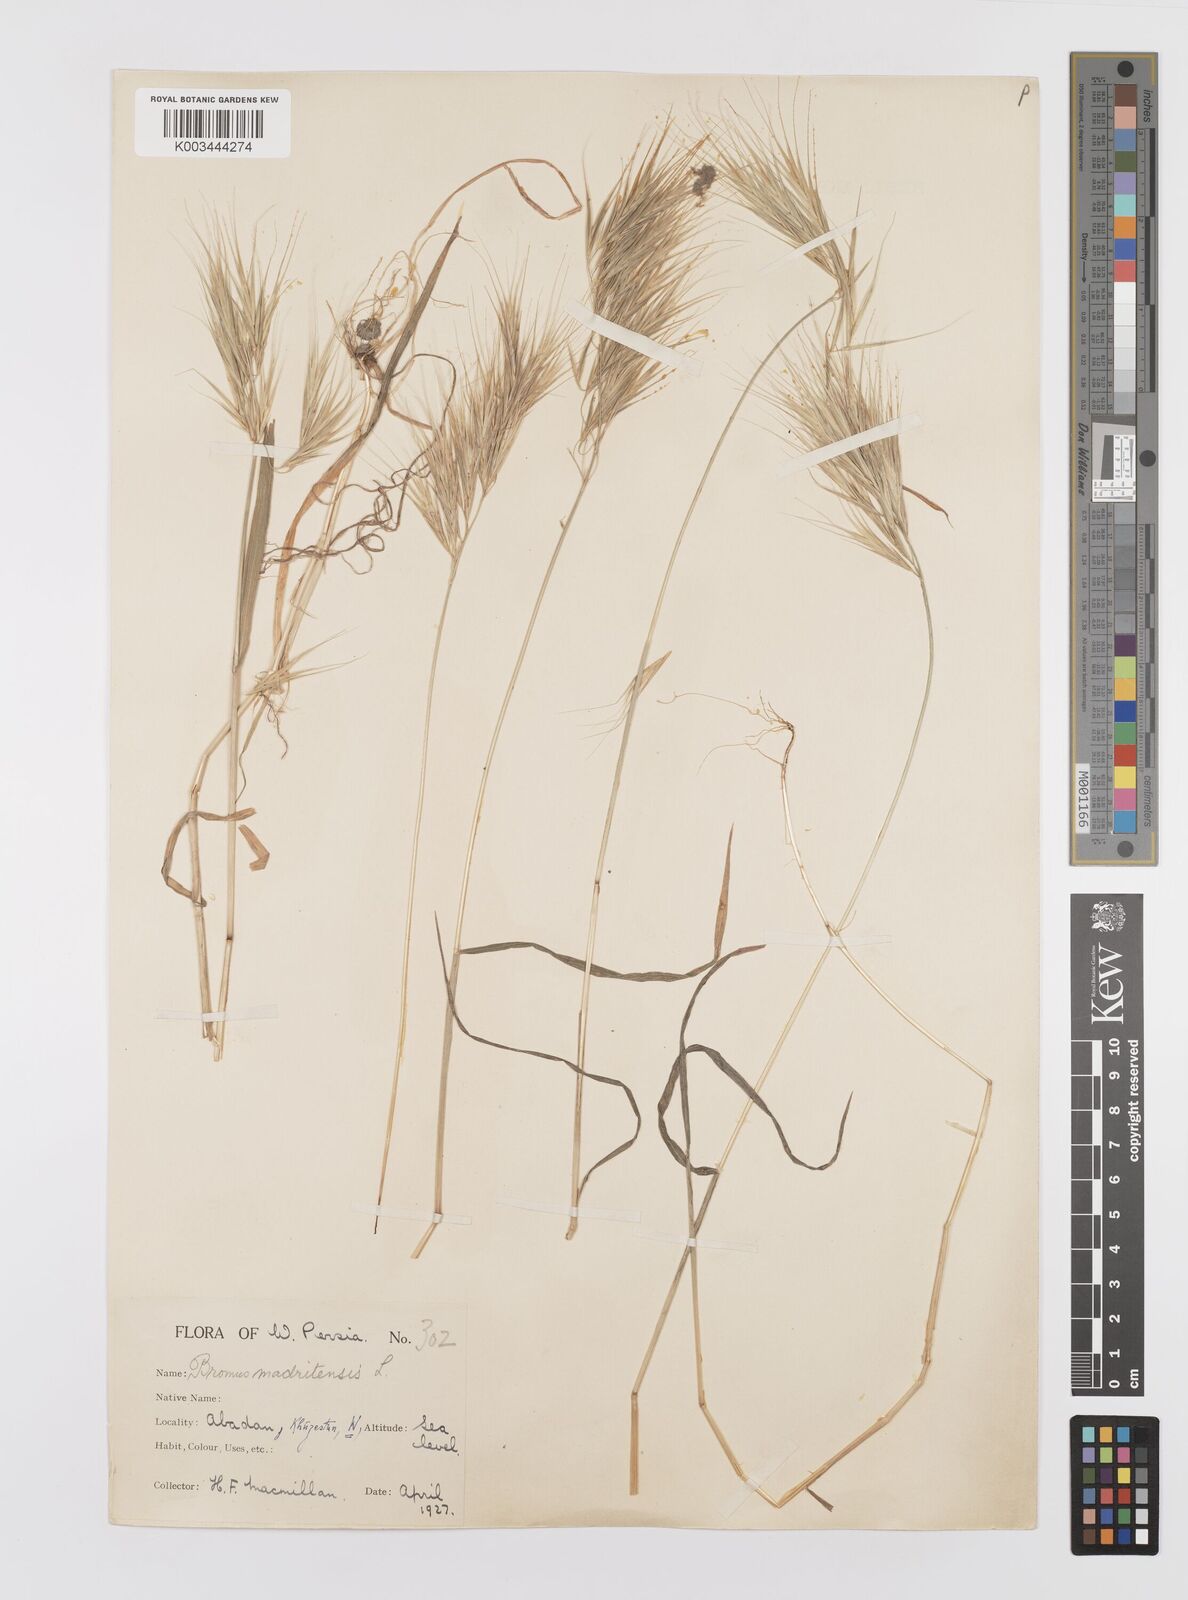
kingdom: Plantae
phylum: Tracheophyta
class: Liliopsida
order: Poales
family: Poaceae
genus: Bromus
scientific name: Bromus madritensis
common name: Compact brome
